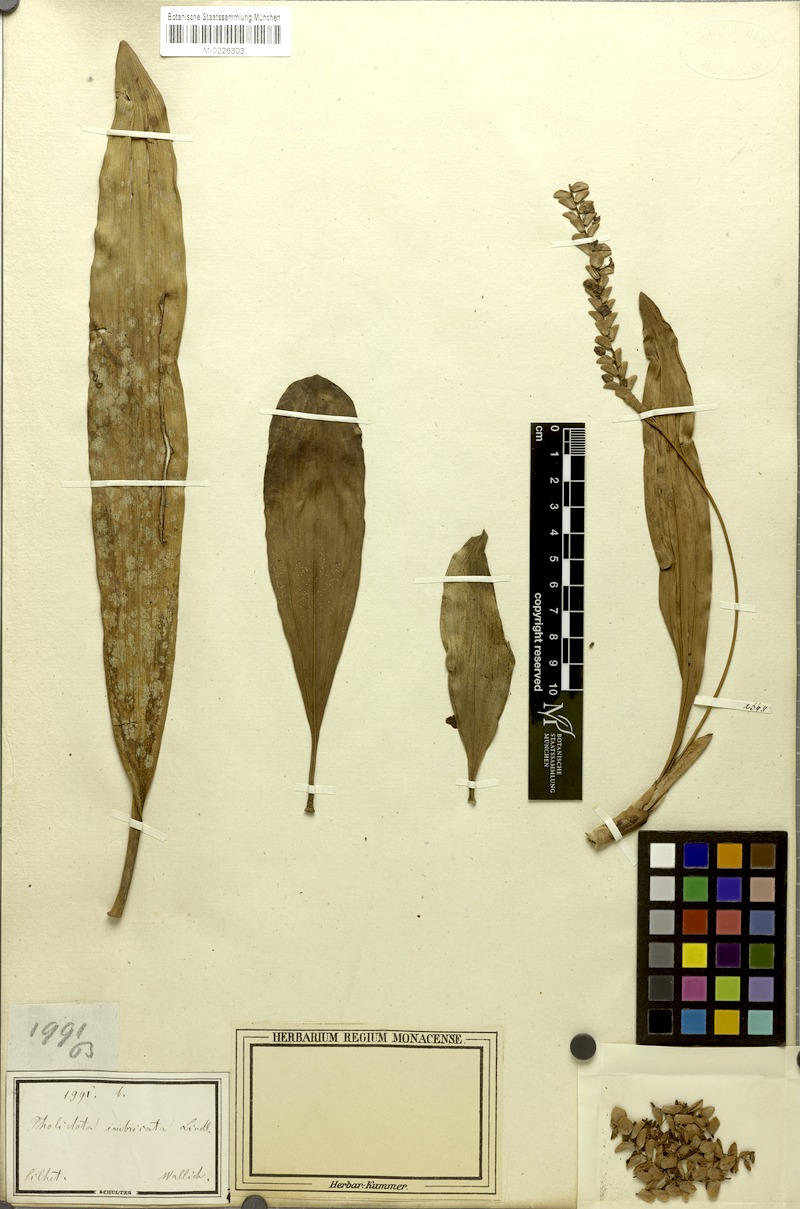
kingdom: Plantae
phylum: Tracheophyta
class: Liliopsida
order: Asparagales
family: Orchidaceae
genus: Pholidota
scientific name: Pholidota imbricata
